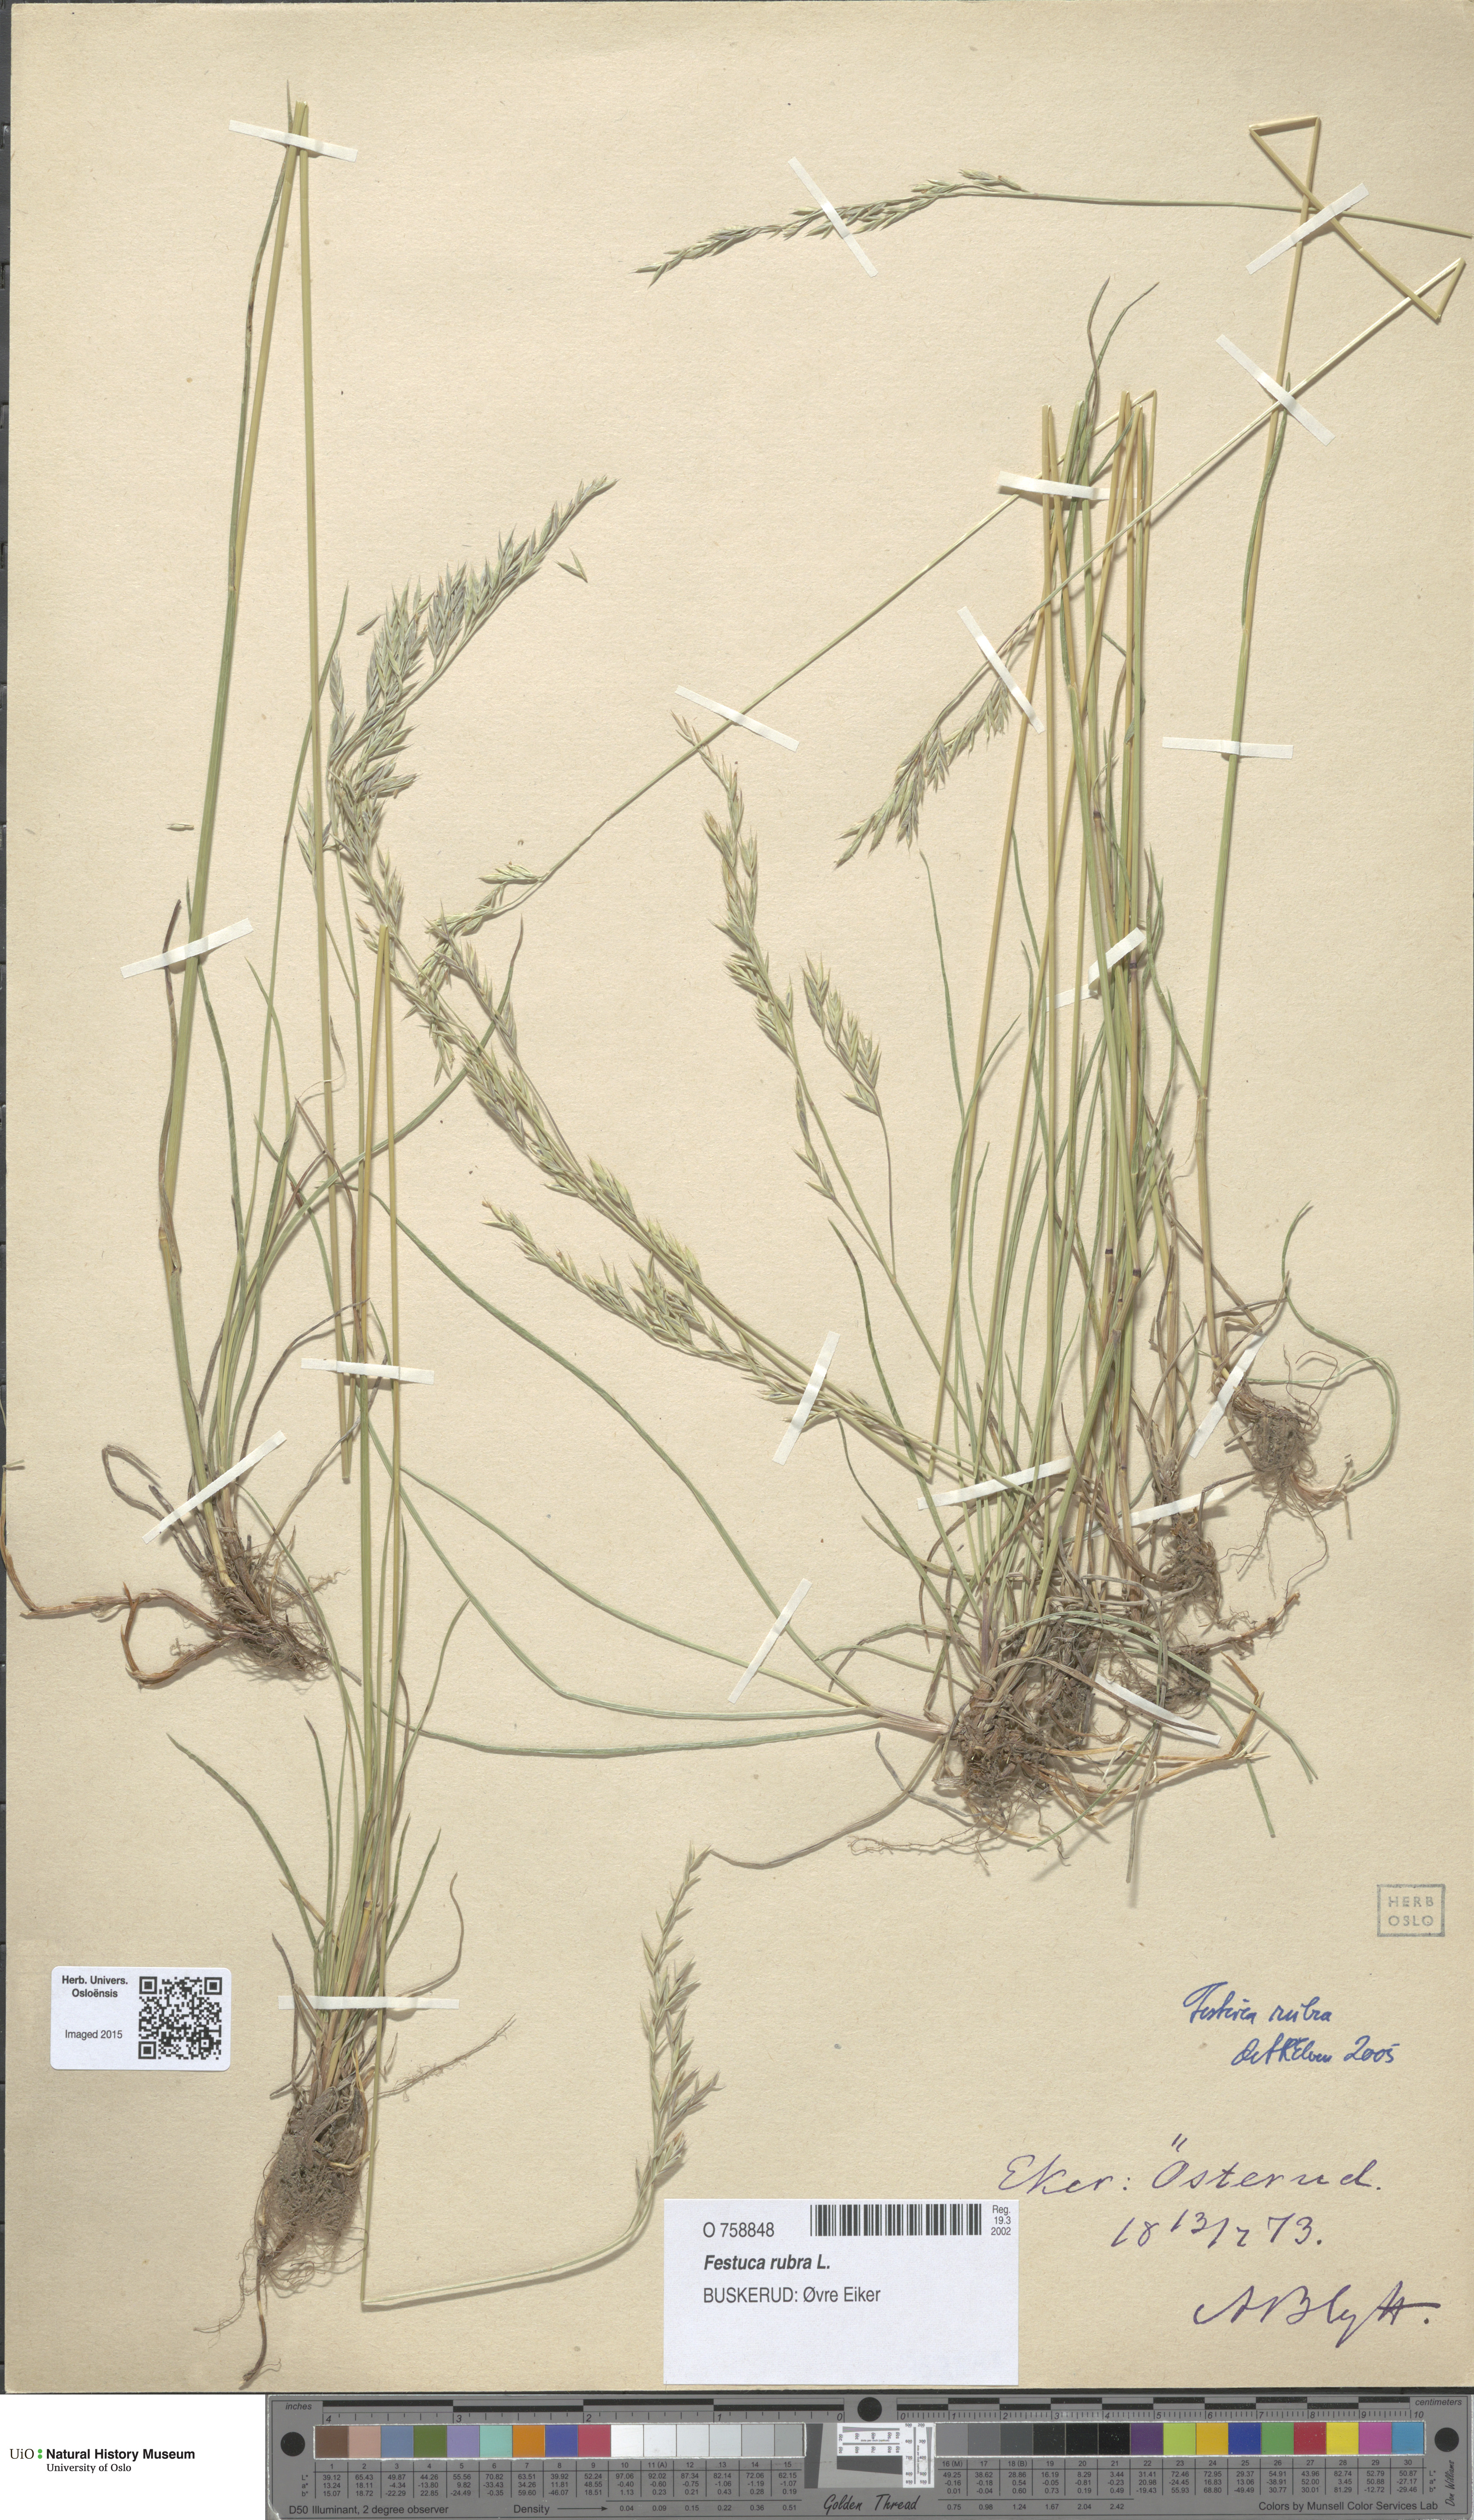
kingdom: Plantae
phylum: Tracheophyta
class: Liliopsida
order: Poales
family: Poaceae
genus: Festuca
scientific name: Festuca rubra
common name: Red fescue
